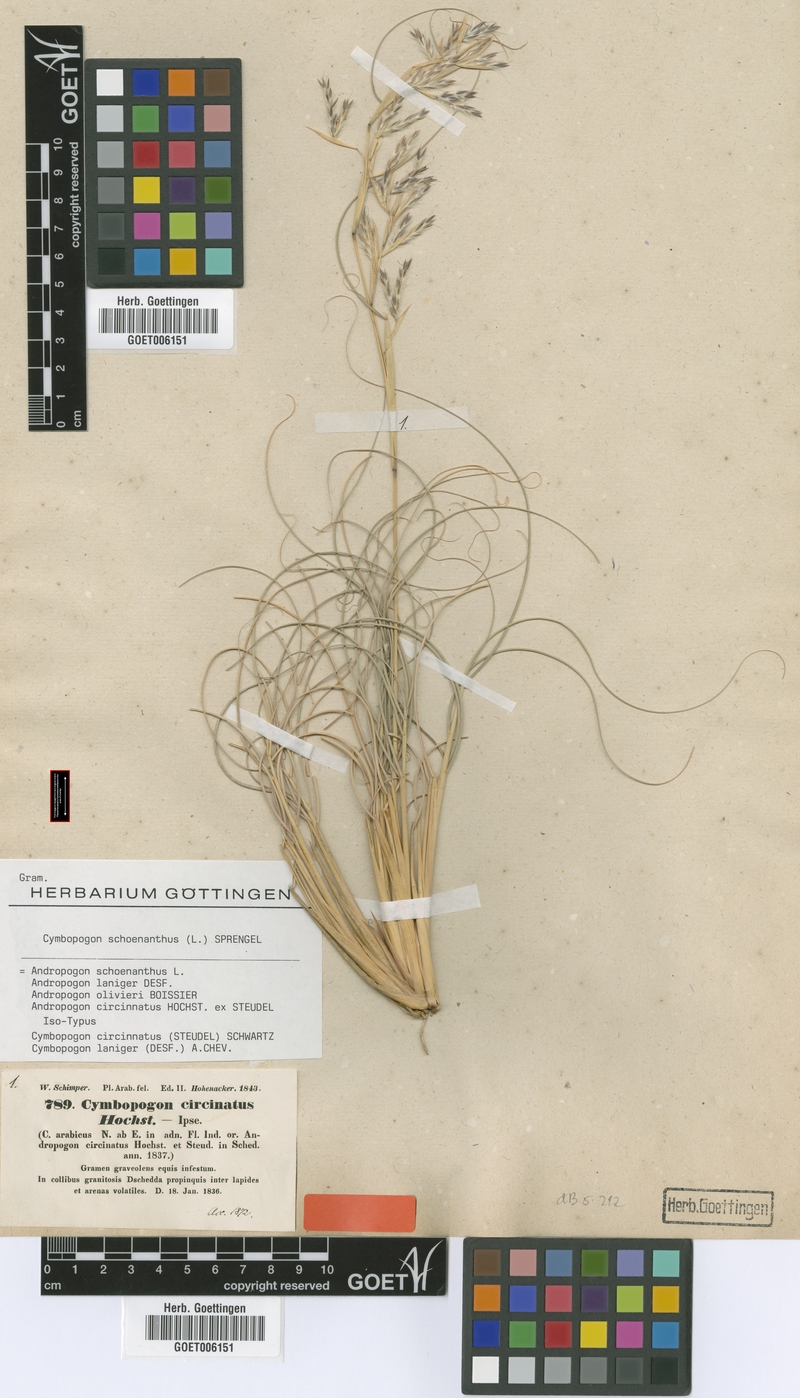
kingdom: Plantae
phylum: Tracheophyta
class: Liliopsida
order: Poales
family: Poaceae
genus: Cymbopogon
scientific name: Cymbopogon schoenanthus
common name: Geranium grass
